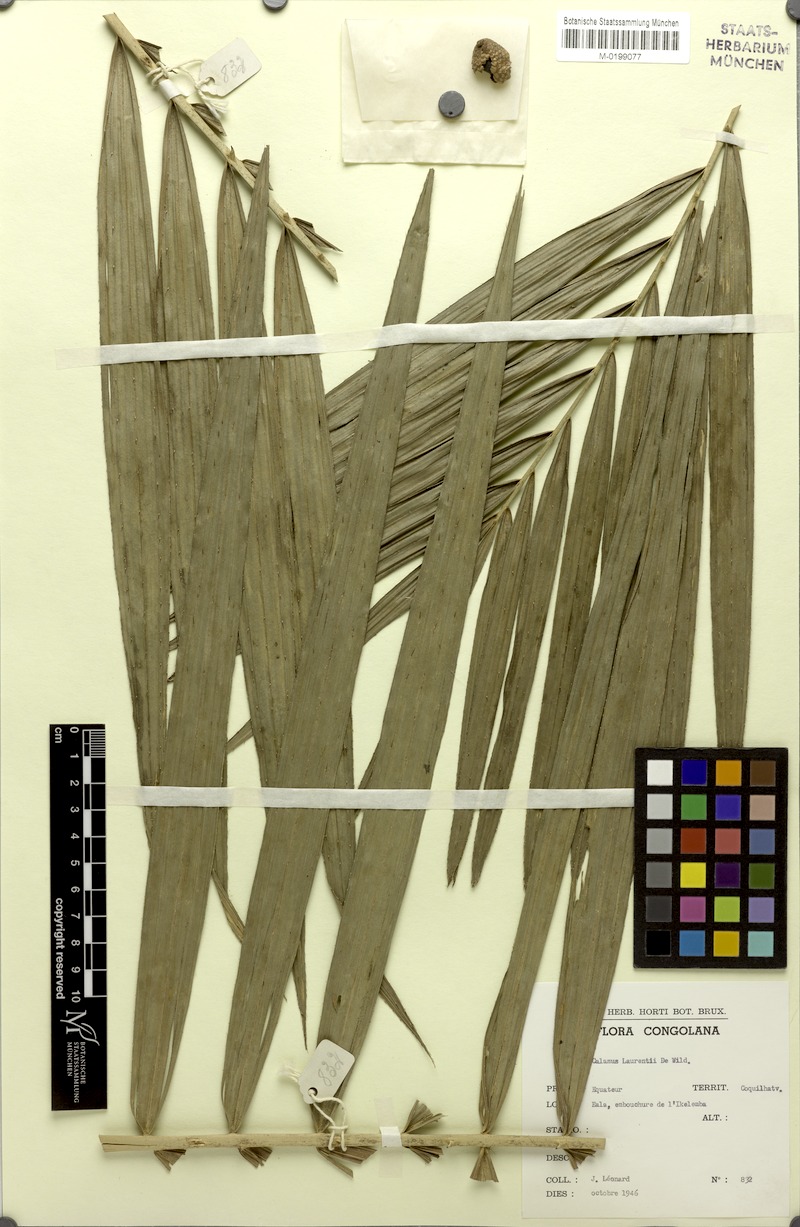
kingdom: Plantae
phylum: Tracheophyta
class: Liliopsida
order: Arecales
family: Arecaceae
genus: Calamus
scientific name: Calamus deerratus
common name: Rattan
